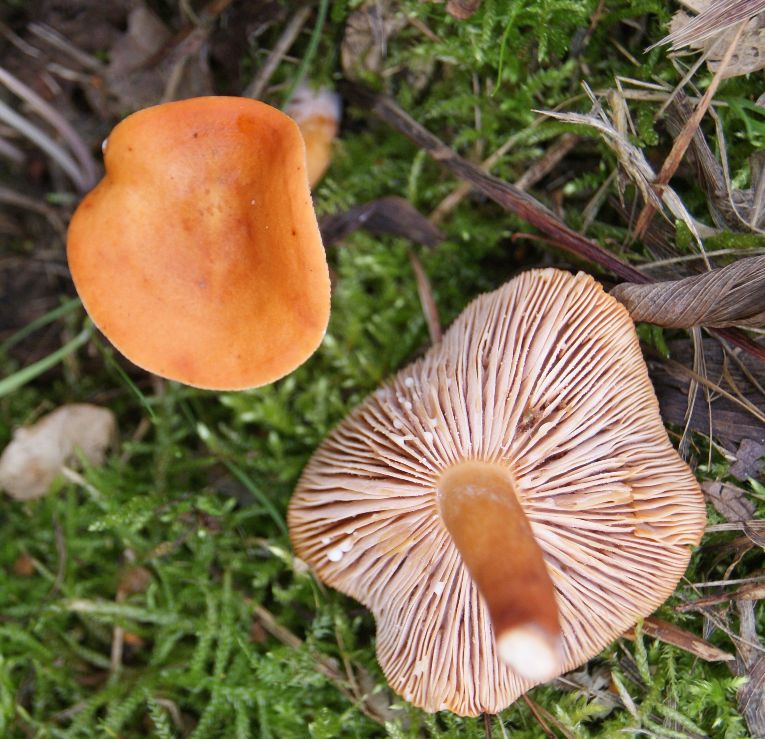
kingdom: Fungi
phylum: Basidiomycota
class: Agaricomycetes
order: Russulales
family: Russulaceae
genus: Lactarius
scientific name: Lactarius aurantiacus
